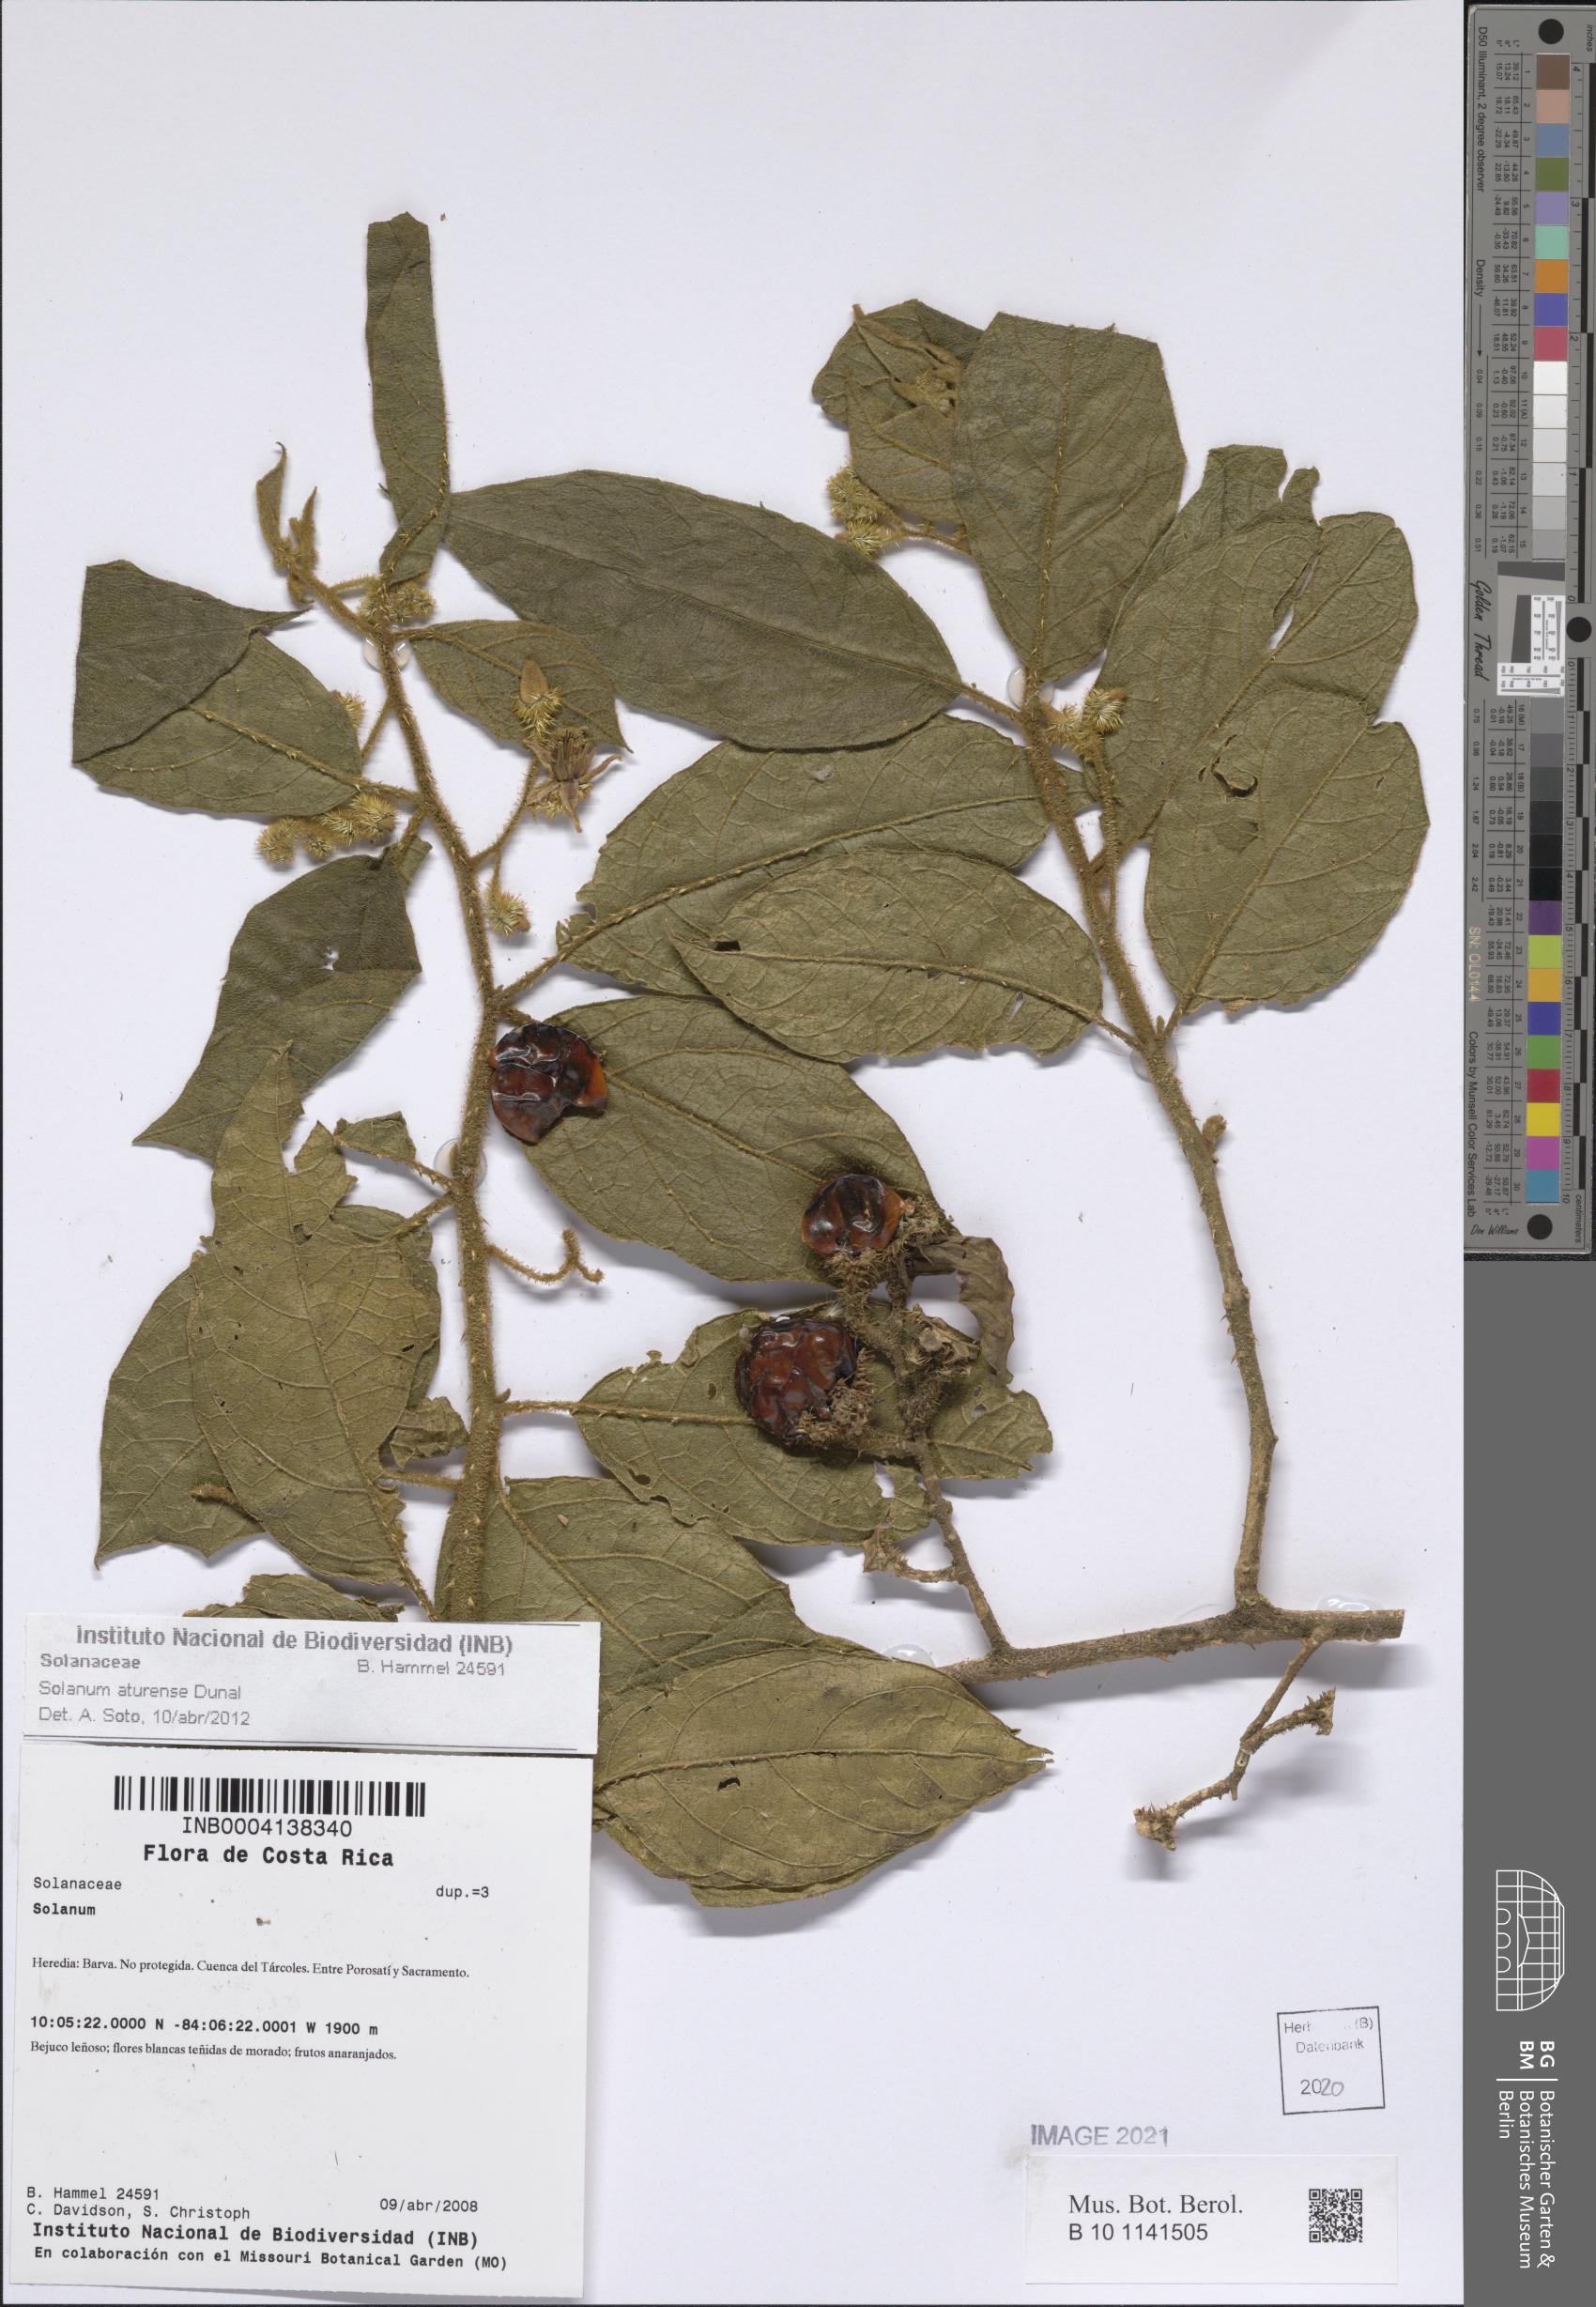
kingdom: Plantae
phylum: Tracheophyta
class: Magnoliopsida
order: Solanales
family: Solanaceae
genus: Solanum
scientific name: Solanum aturense
